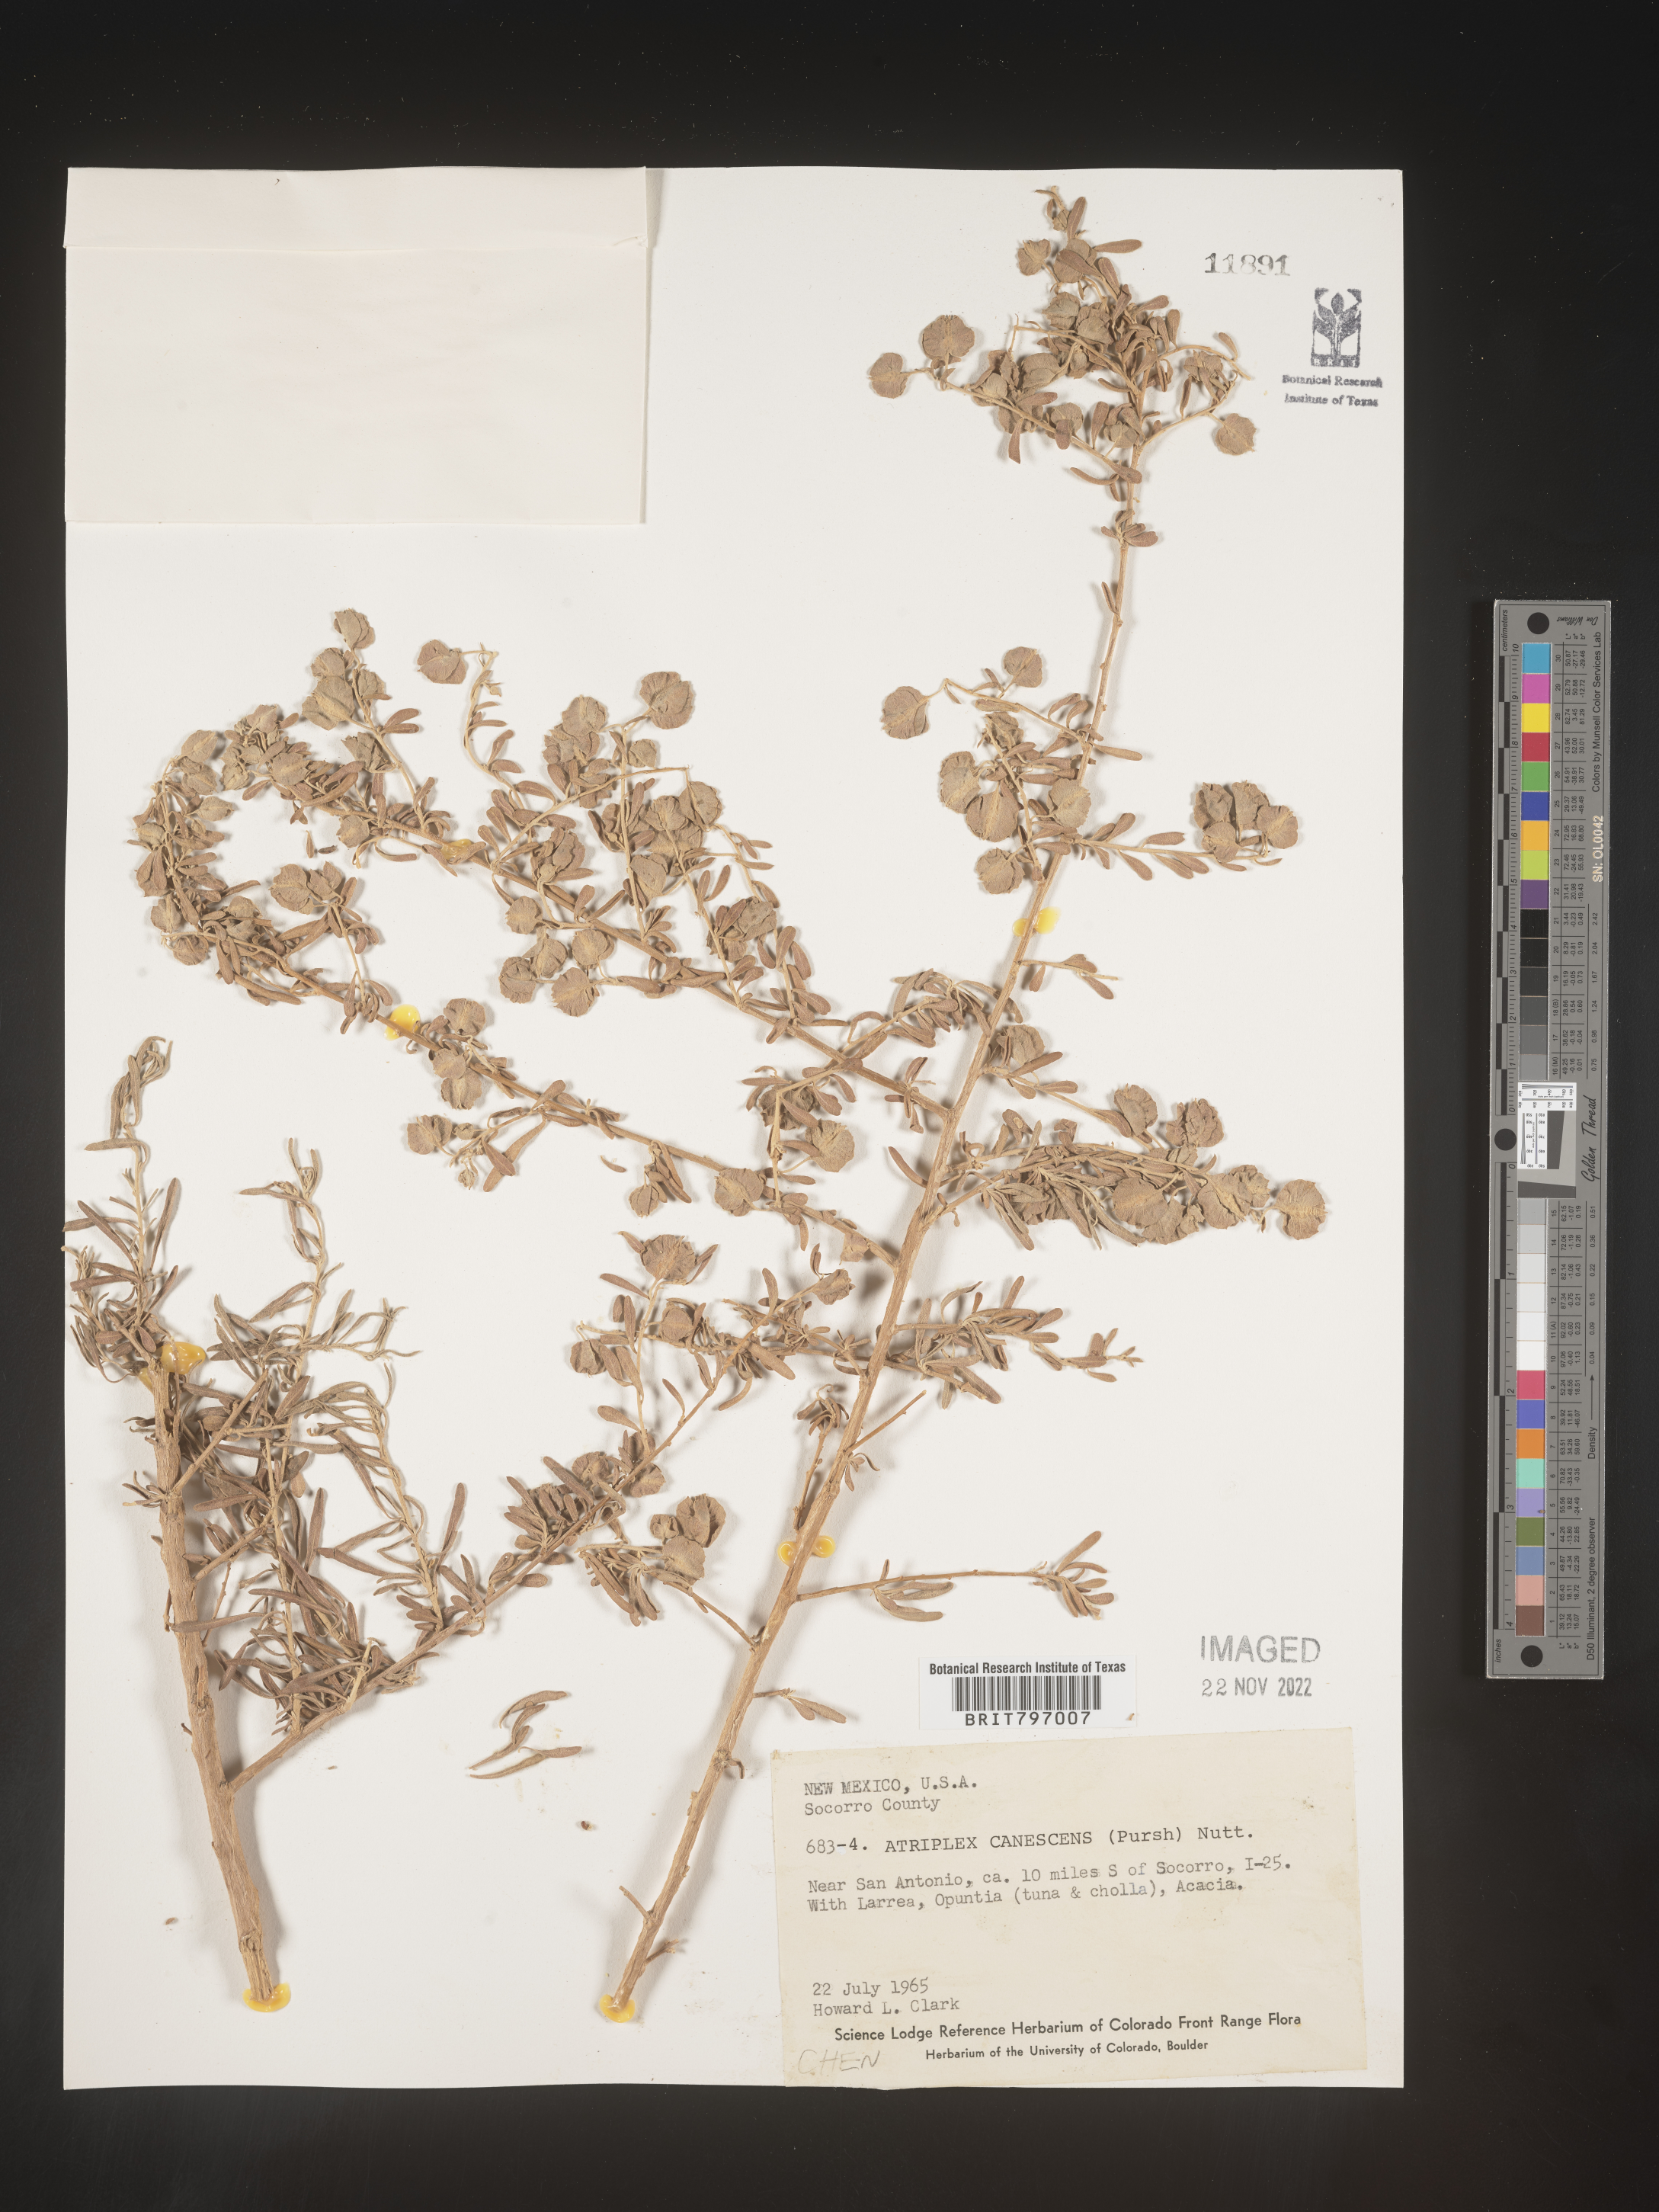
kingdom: Plantae
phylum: Tracheophyta
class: Magnoliopsida
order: Caryophyllales
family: Amaranthaceae
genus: Atriplex
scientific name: Atriplex canescens
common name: Four-wing saltbush
